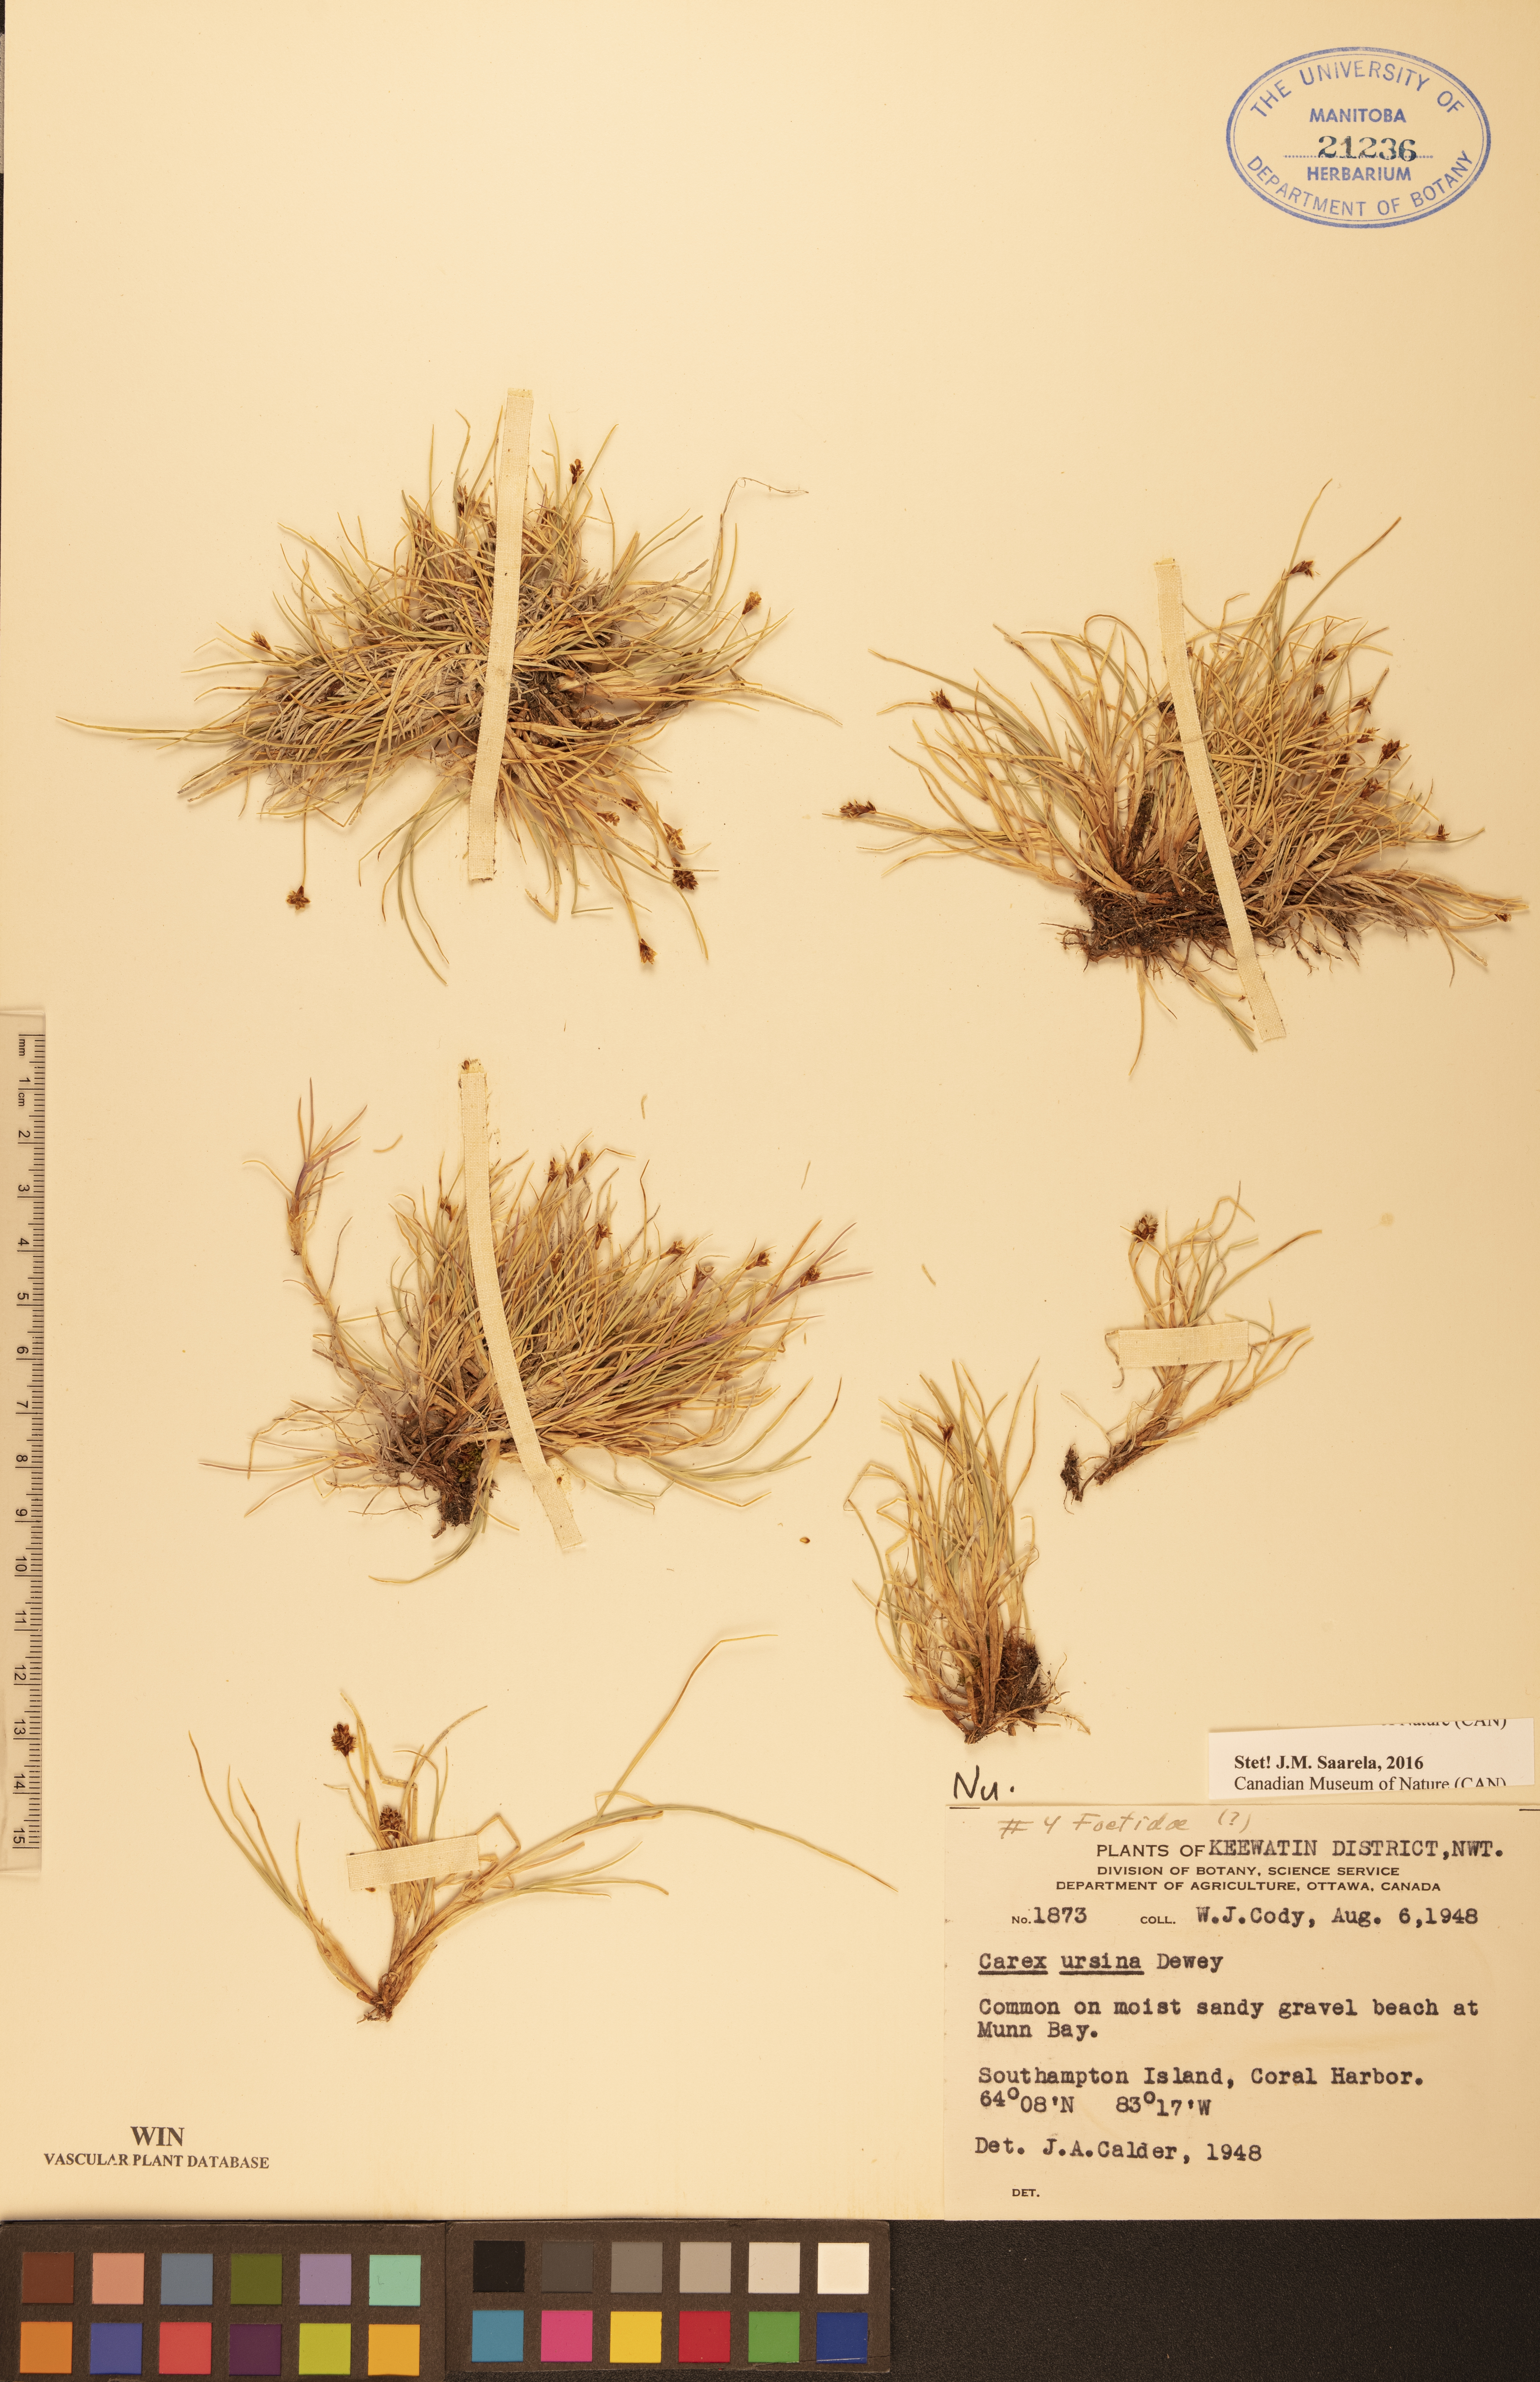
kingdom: Plantae
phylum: Tracheophyta
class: Liliopsida
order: Poales
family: Cyperaceae
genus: Carex
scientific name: Carex ursina
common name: Bear sedge
